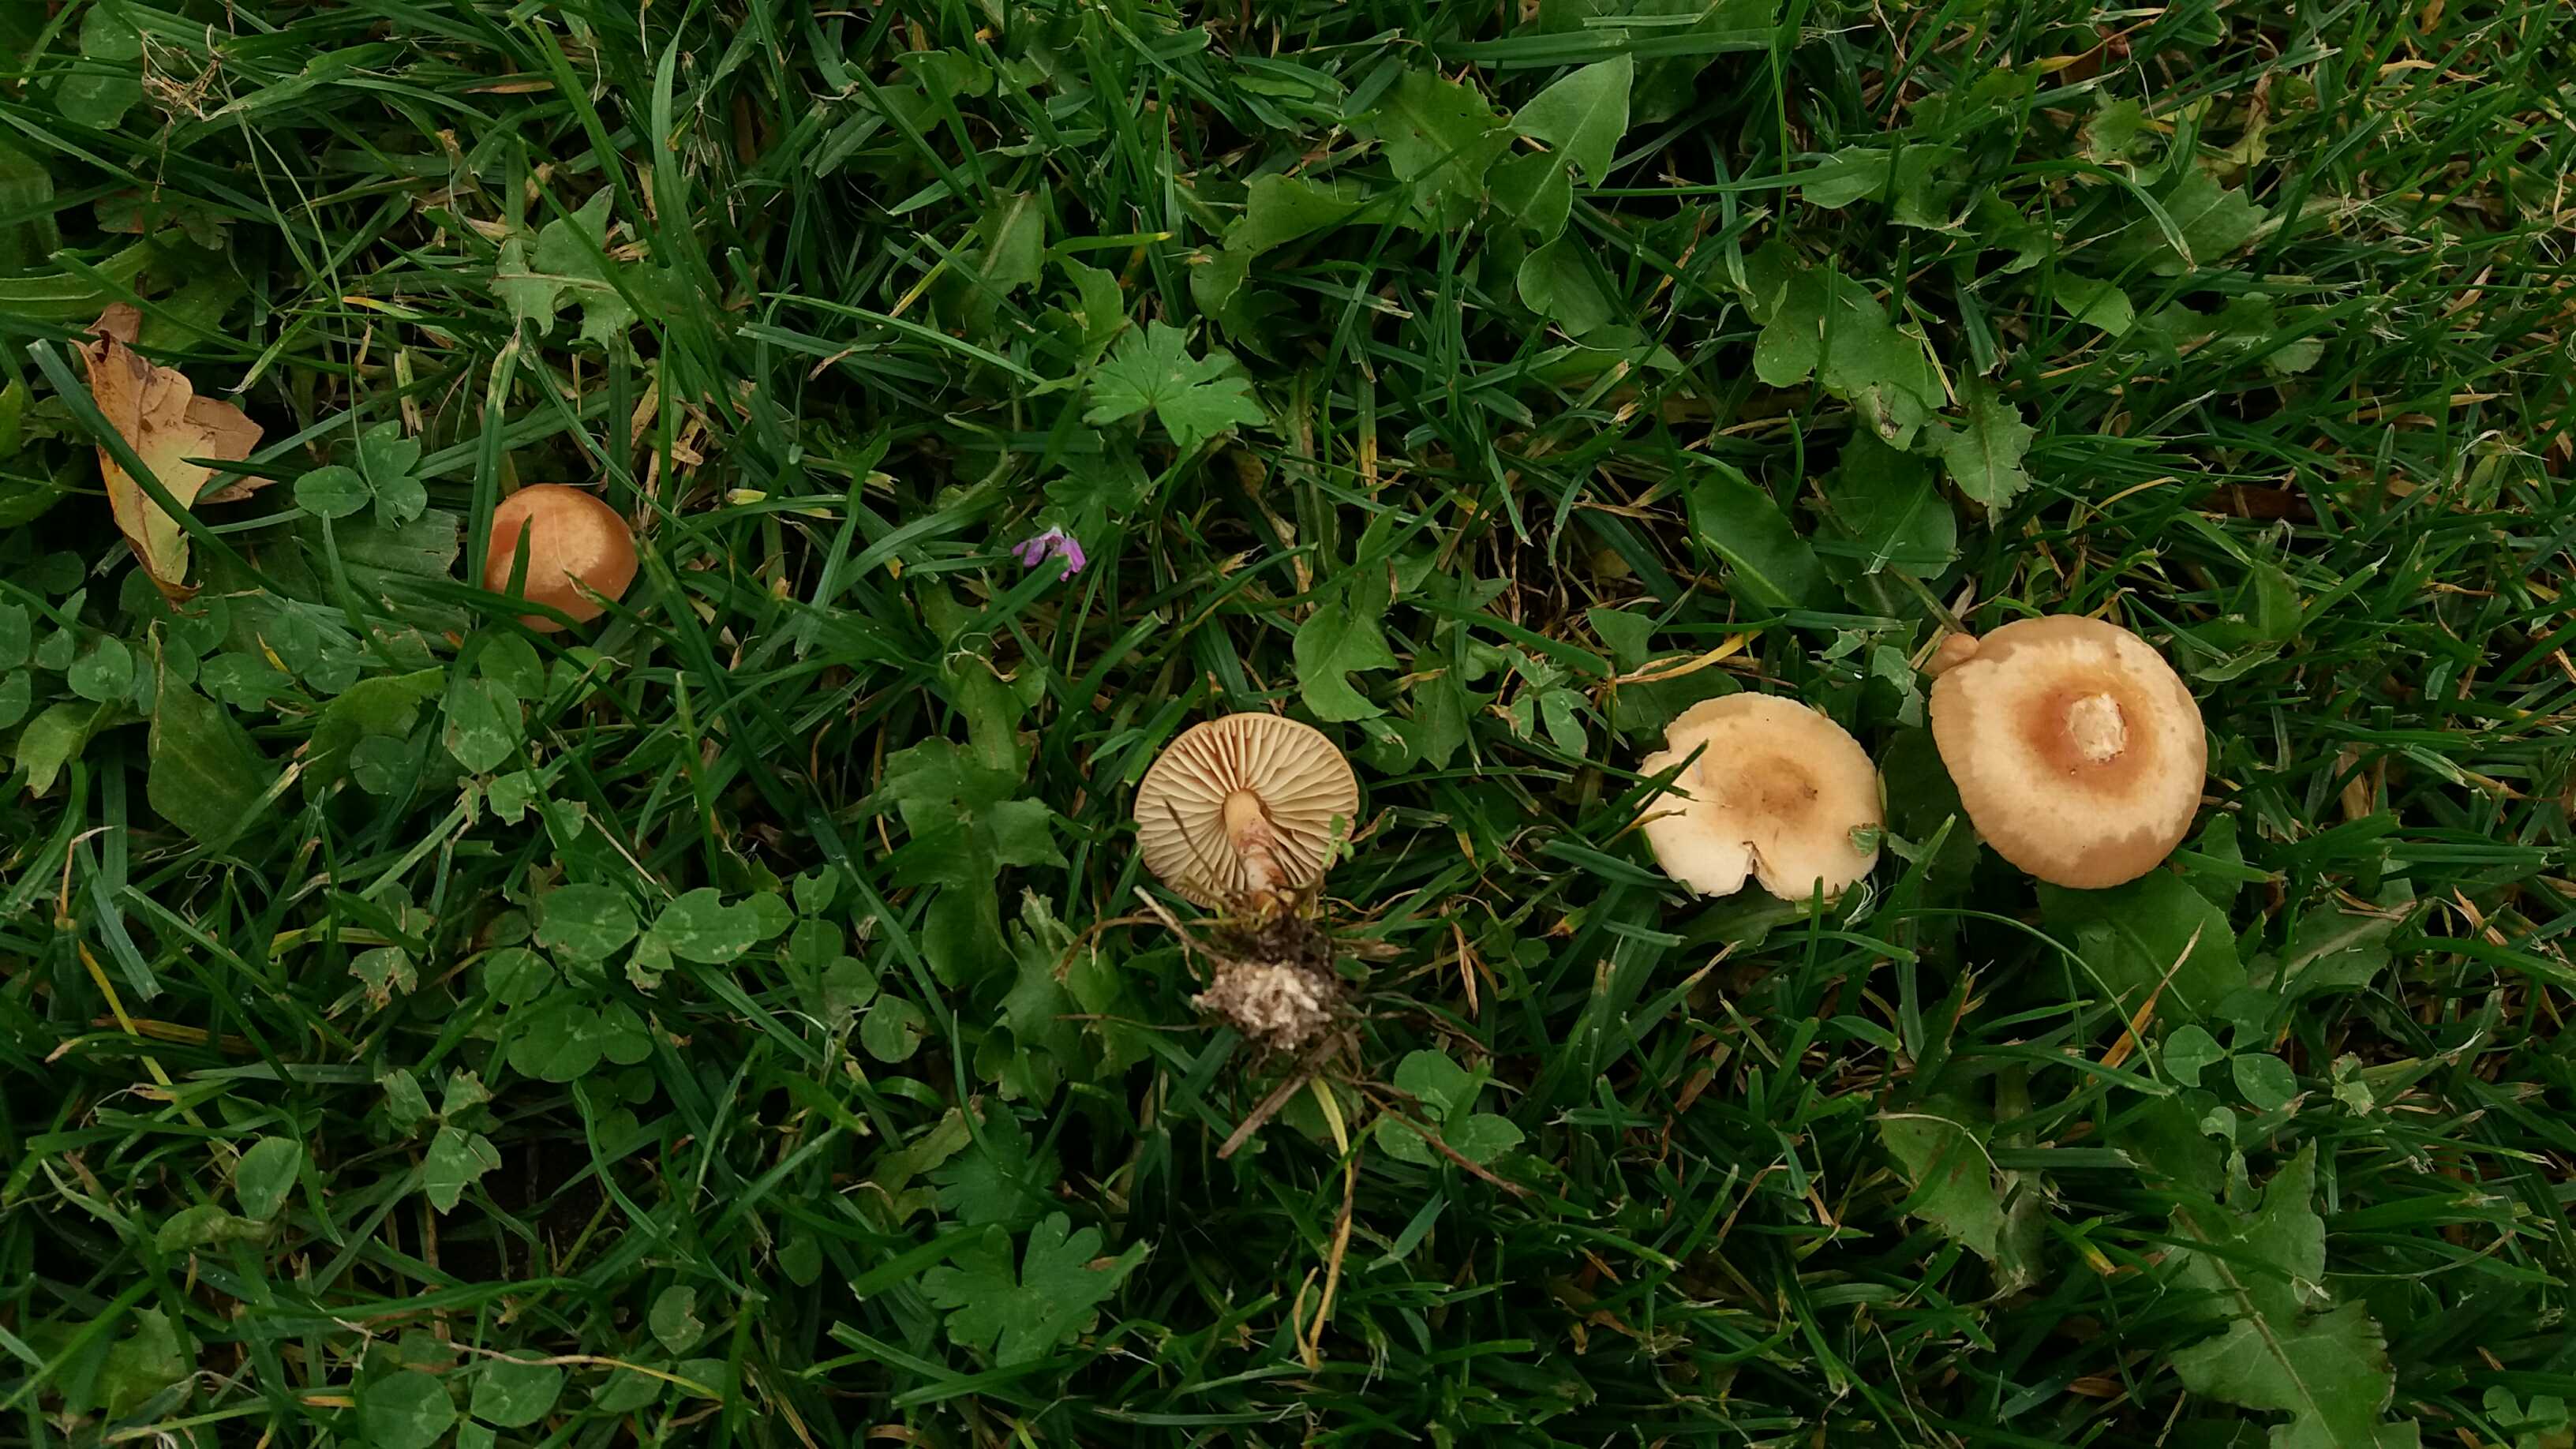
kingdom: Fungi
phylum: Basidiomycota
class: Agaricomycetes
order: Agaricales
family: Marasmiaceae
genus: Marasmius
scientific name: Marasmius oreades
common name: elledans-bruskhat
